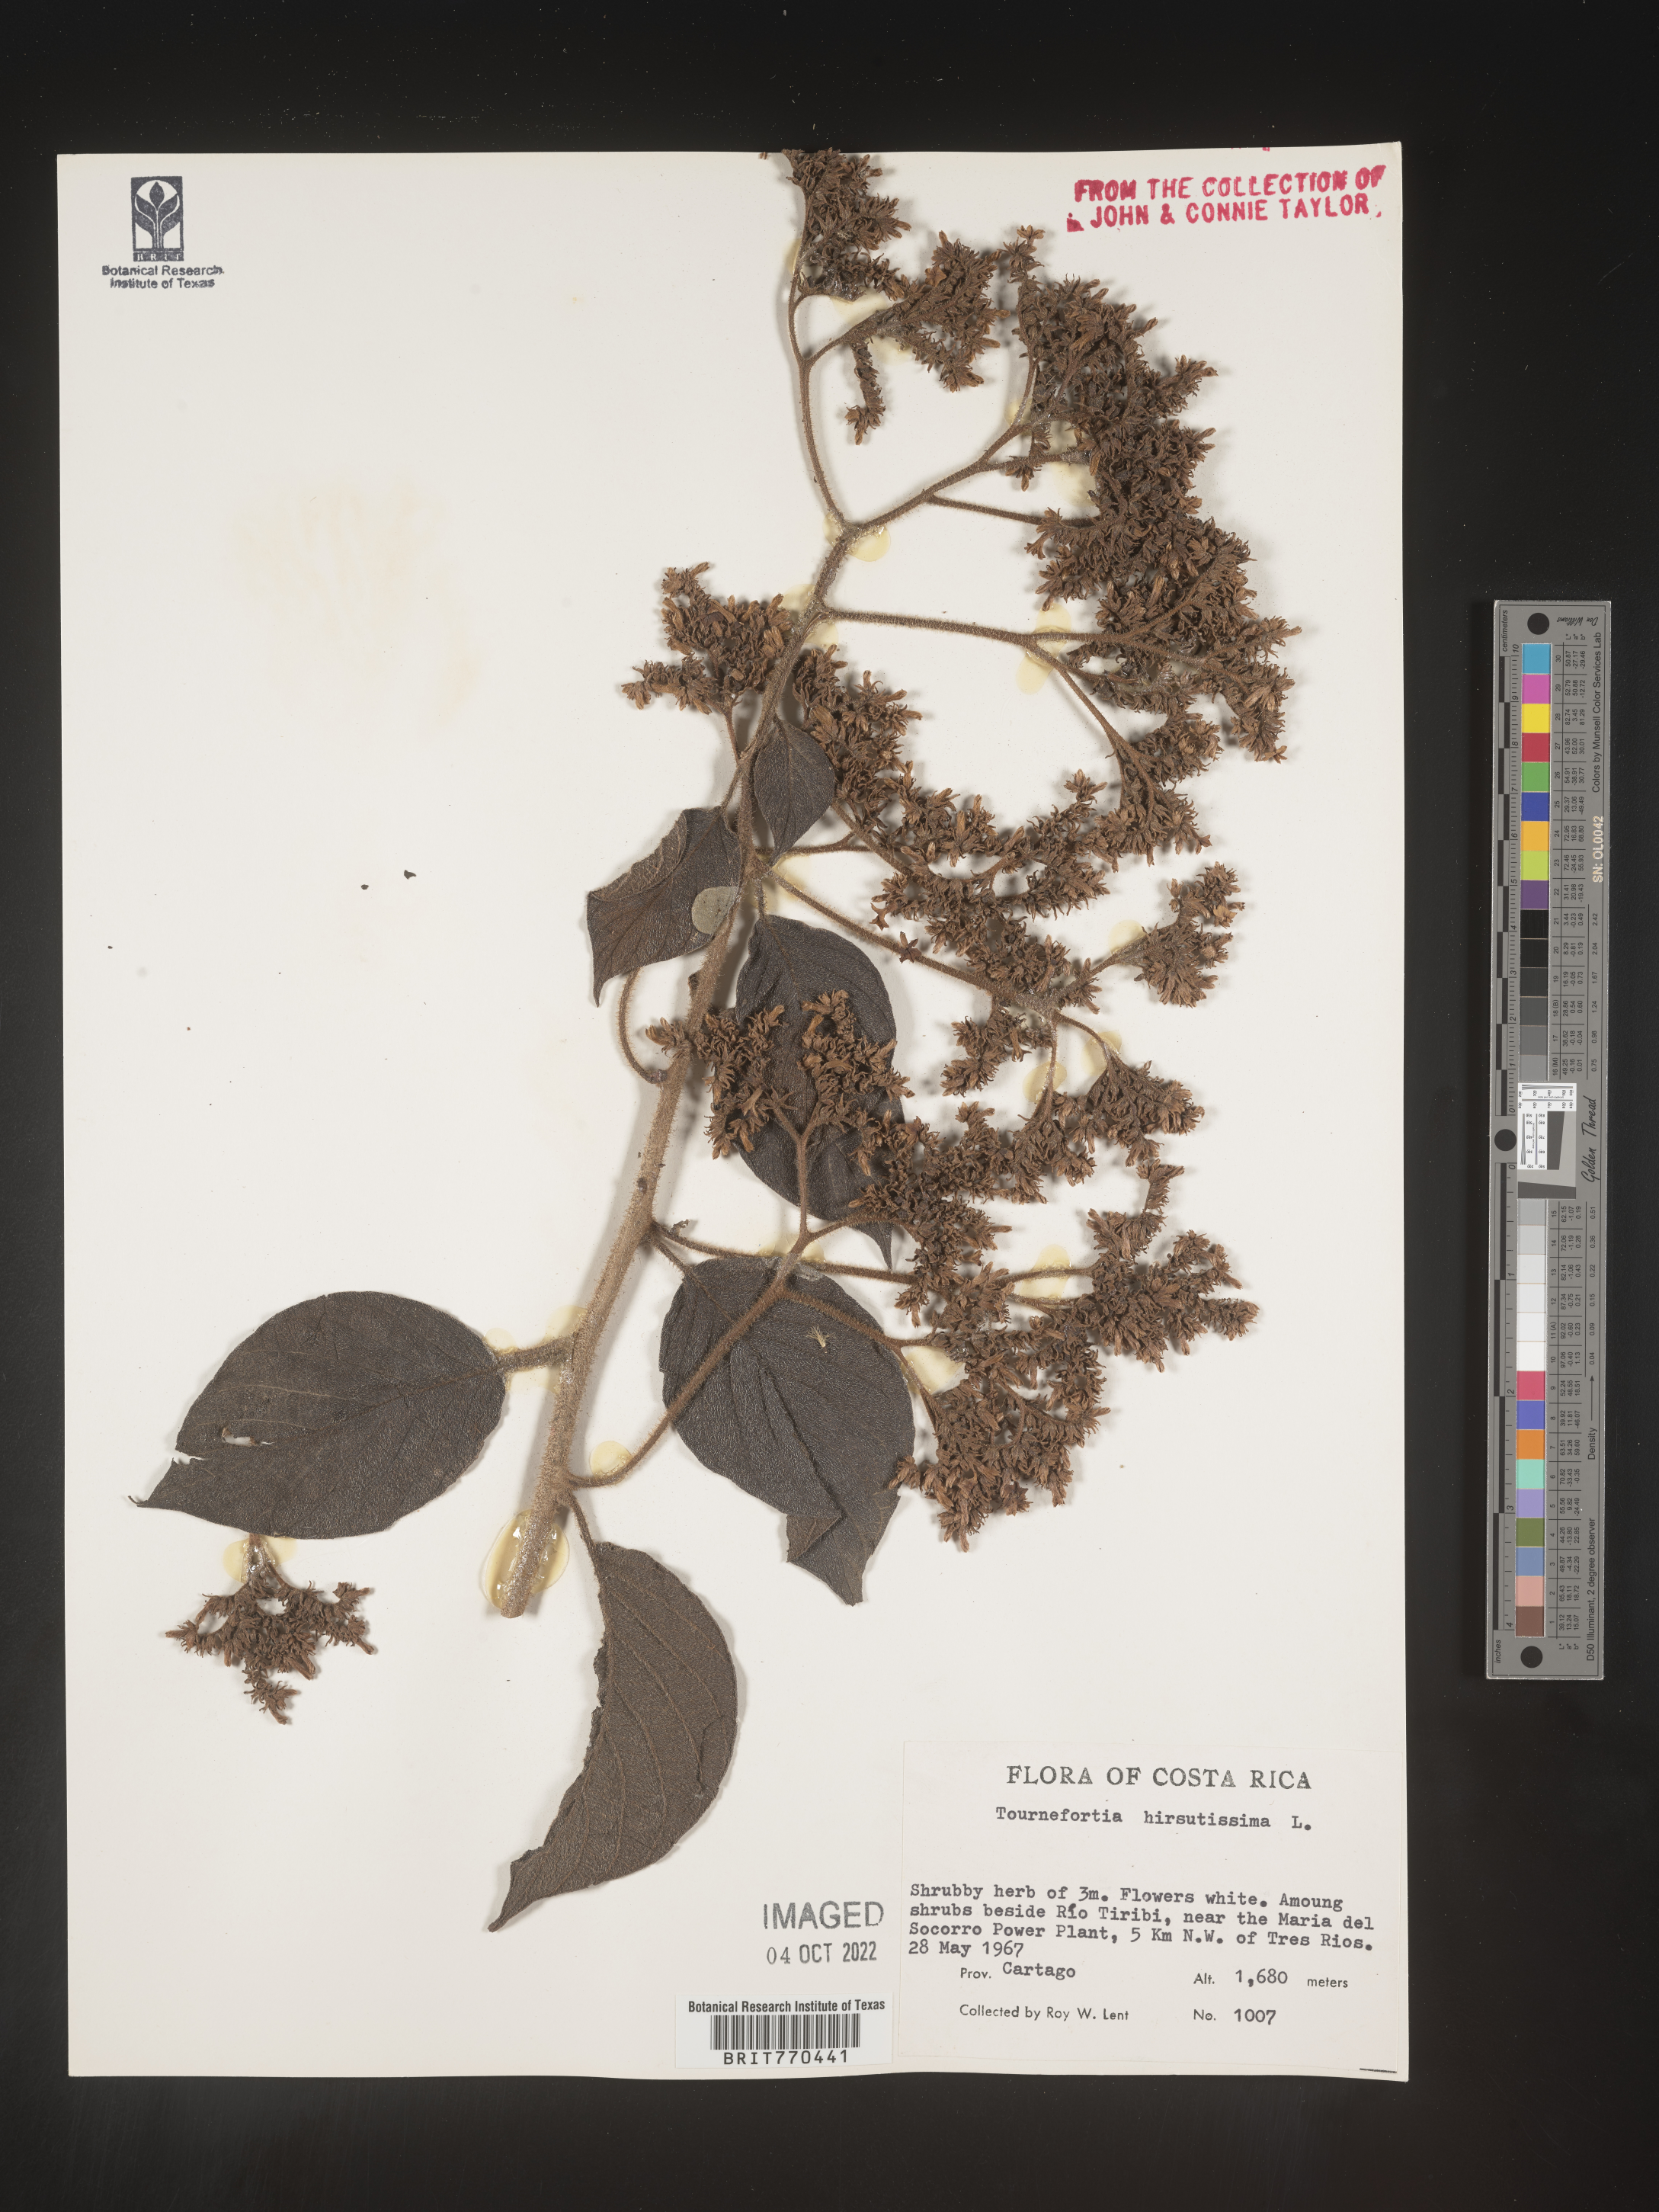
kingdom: Plantae
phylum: Tracheophyta
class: Magnoliopsida
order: Boraginales
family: Heliotropiaceae
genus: Tournefortia
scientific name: Tournefortia
